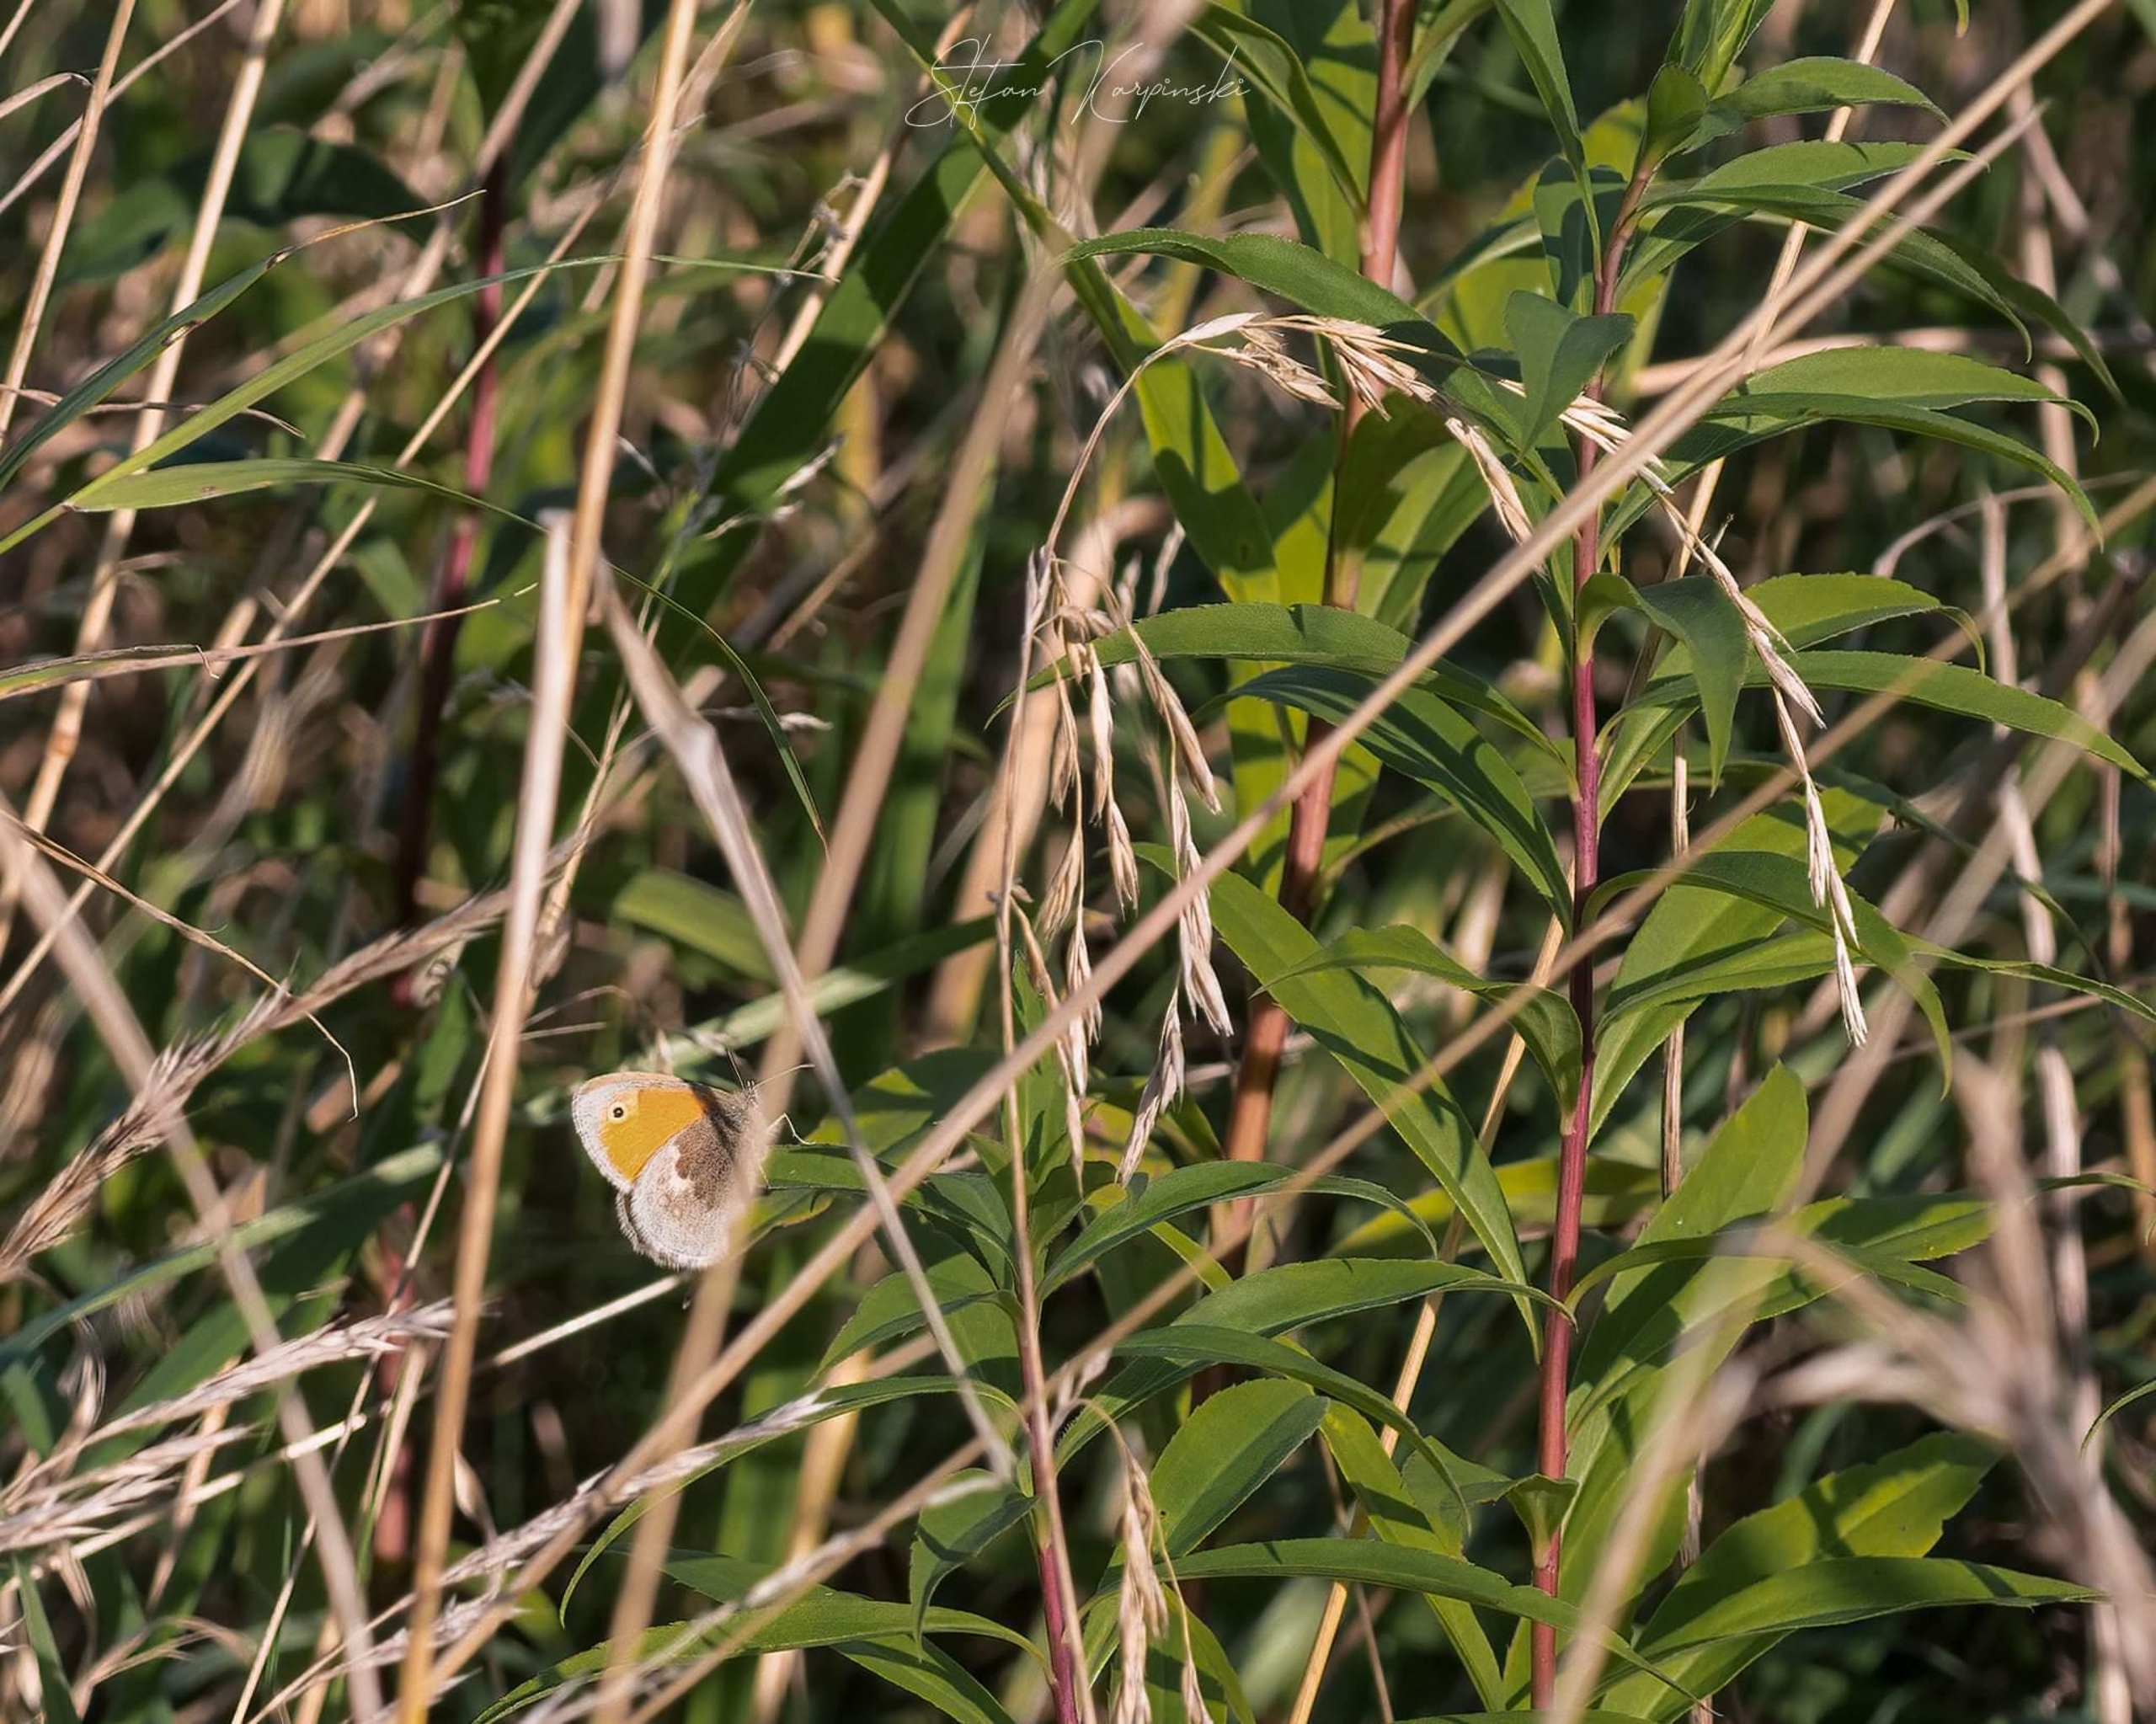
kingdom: Animalia
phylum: Arthropoda
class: Insecta
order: Lepidoptera
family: Nymphalidae
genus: Coenonympha
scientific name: Coenonympha pamphilus
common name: Okkergul randøje
